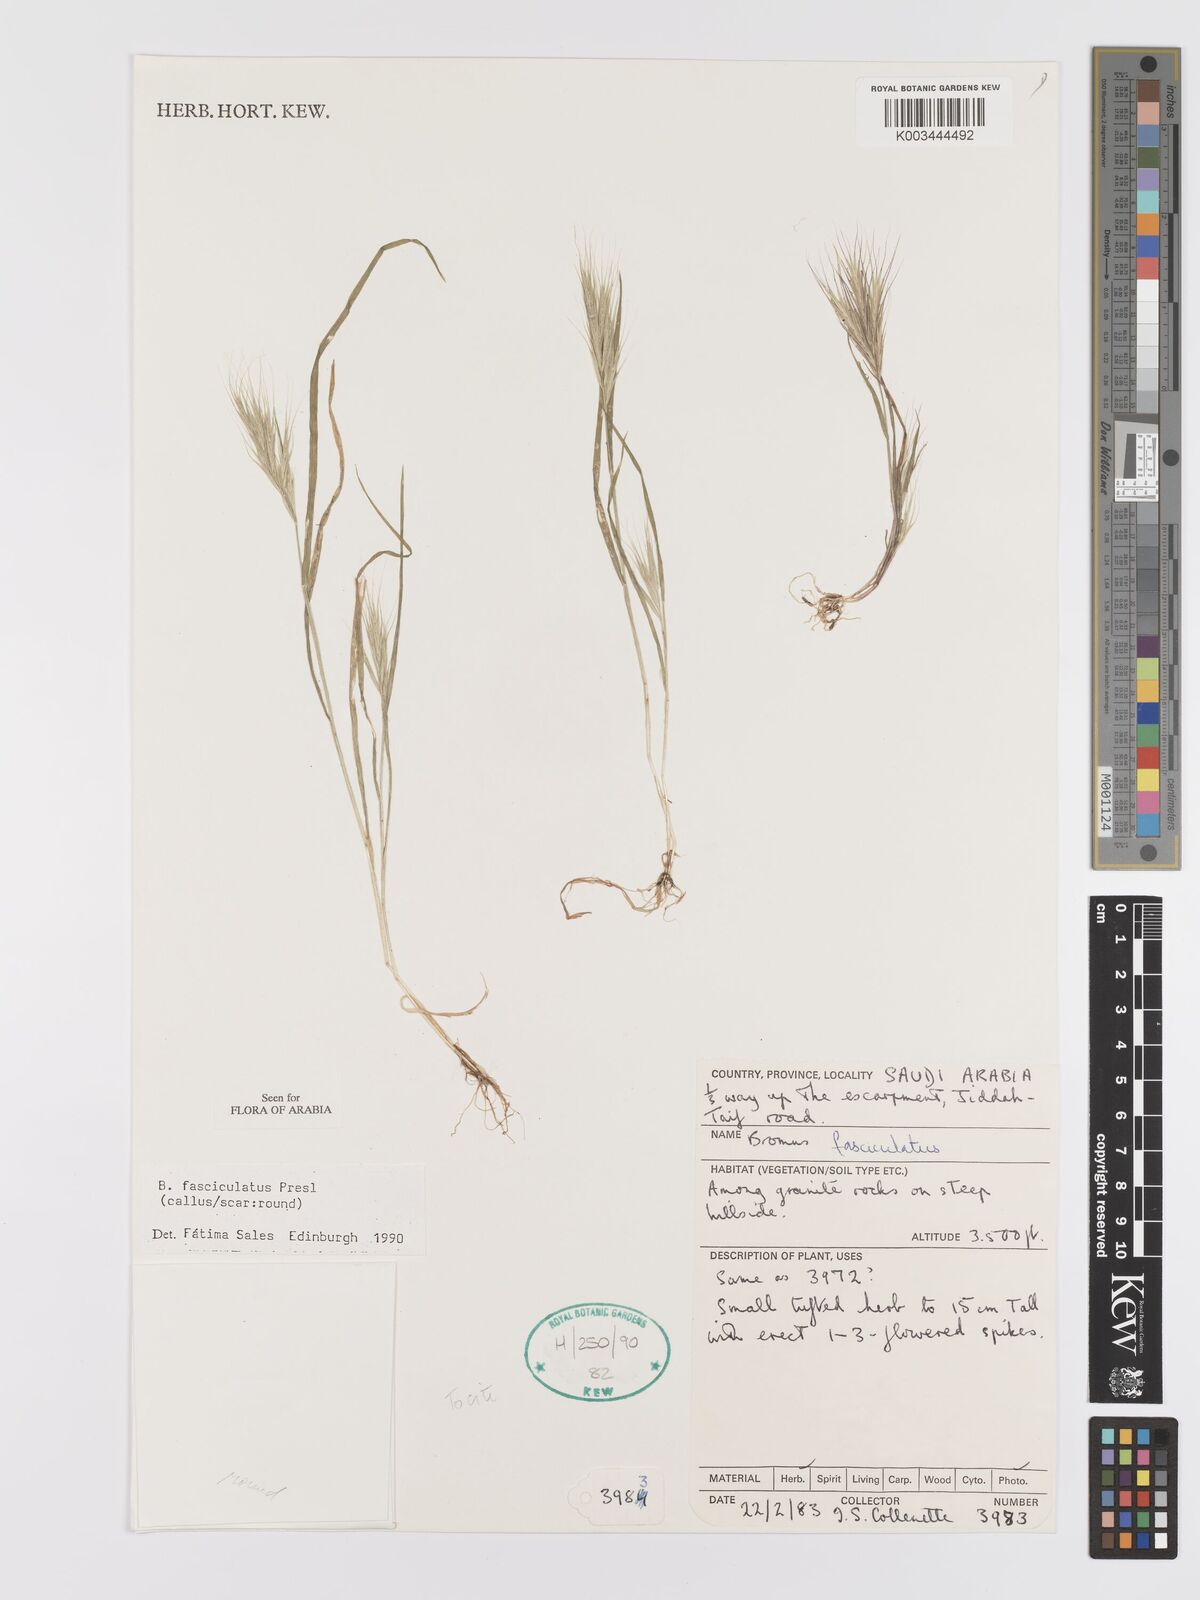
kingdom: Plantae
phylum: Tracheophyta
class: Liliopsida
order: Poales
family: Poaceae
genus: Bromus
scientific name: Bromus fasciculatus
